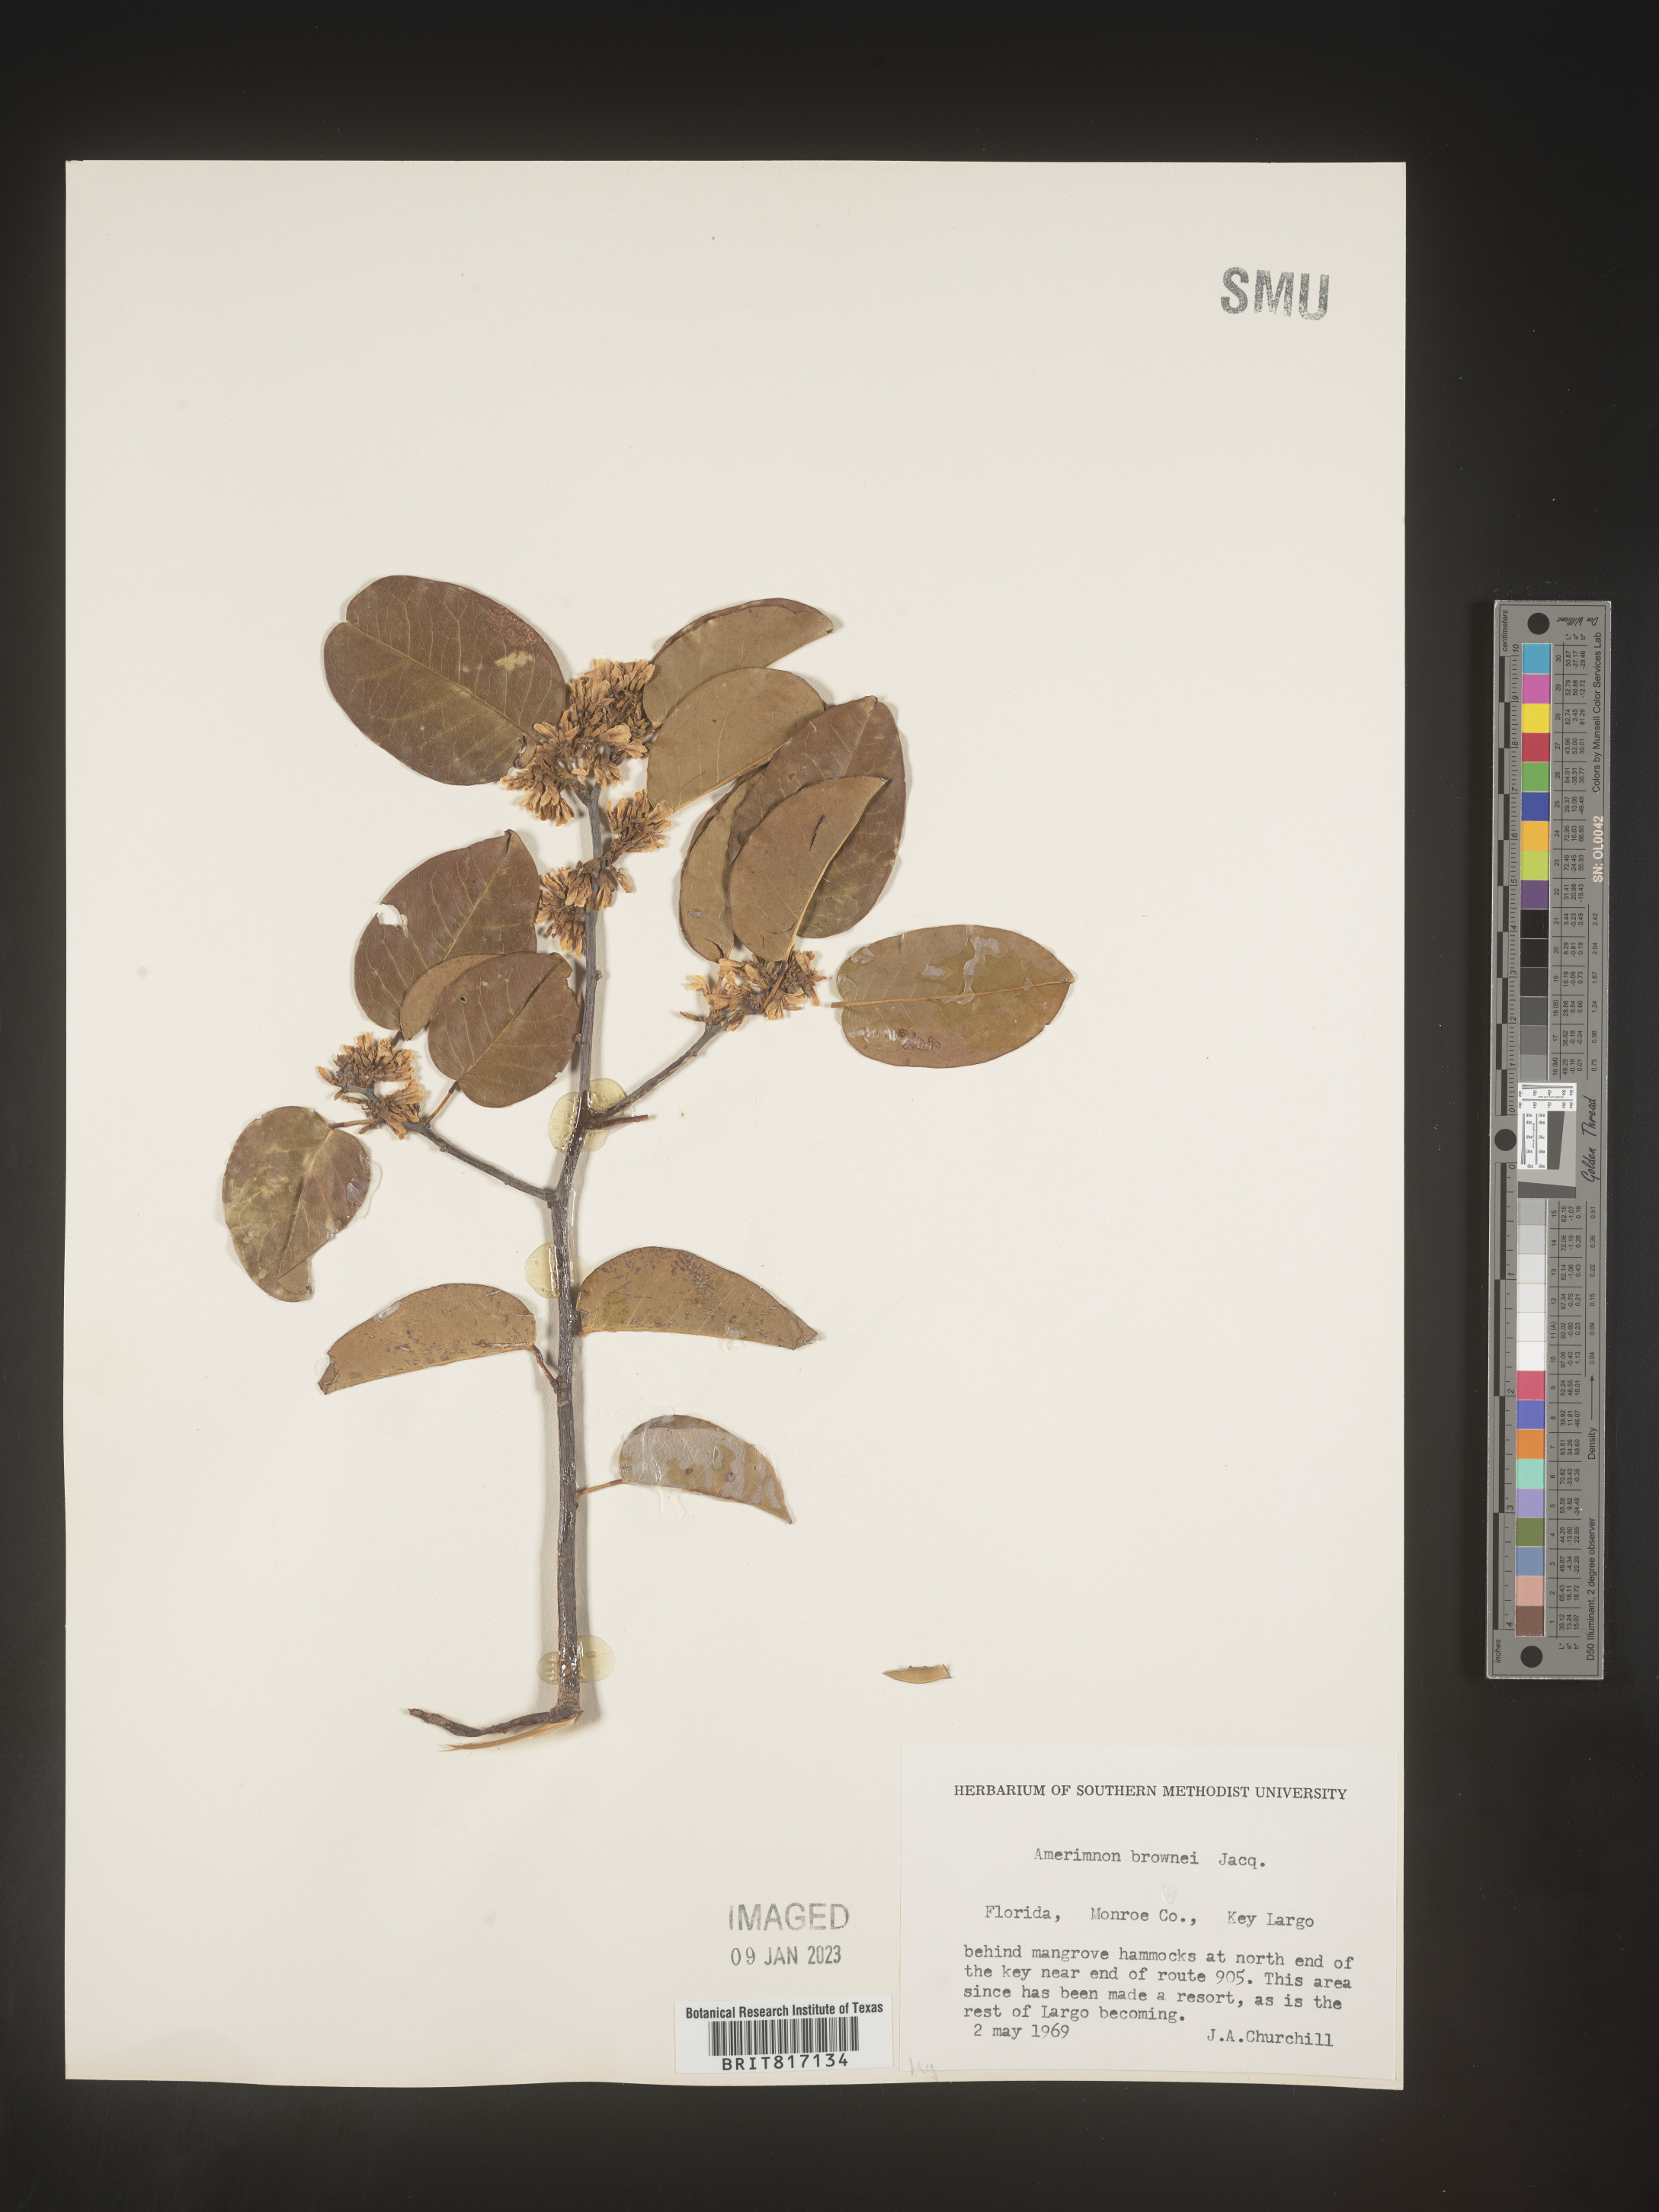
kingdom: Plantae
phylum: Tracheophyta
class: Magnoliopsida
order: Fabales
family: Fabaceae
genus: Dalbergia
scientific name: Dalbergia
